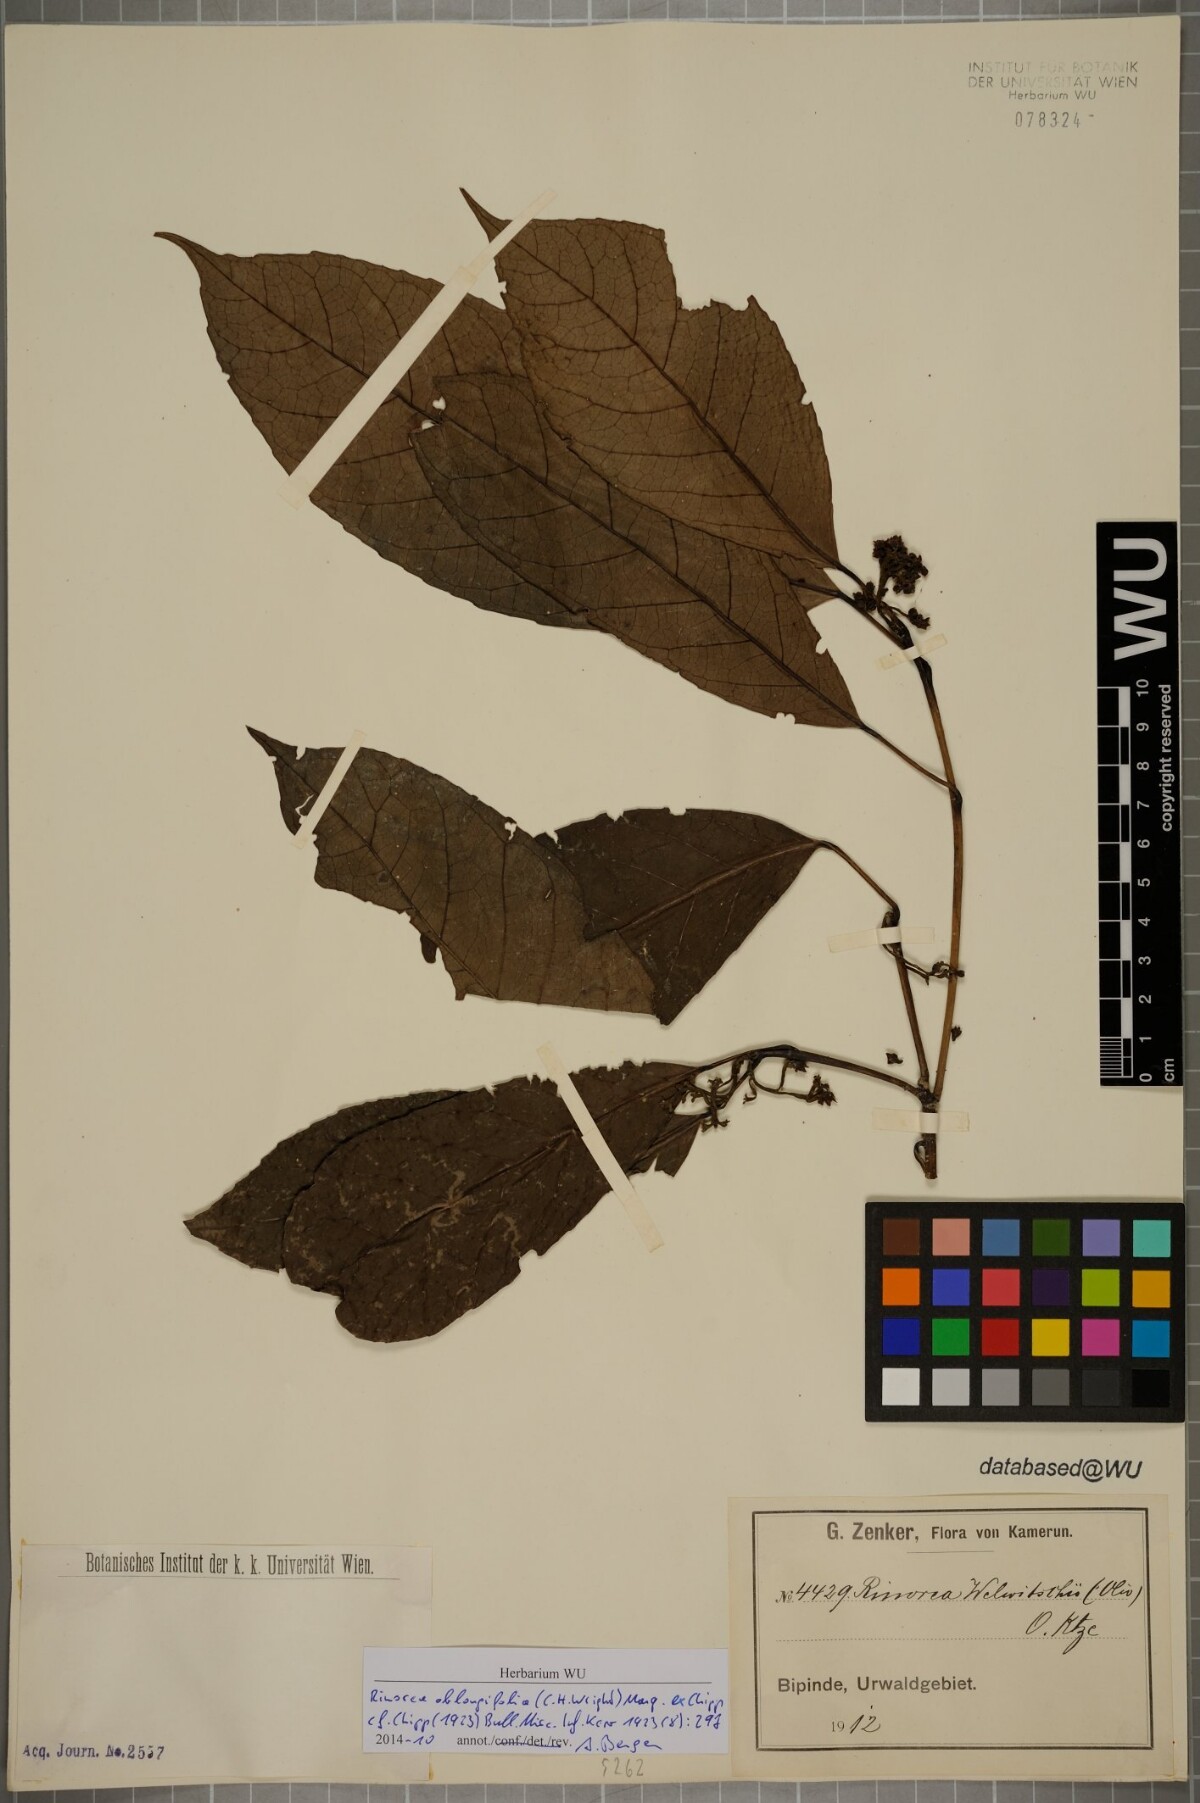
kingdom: Plantae
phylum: Tracheophyta
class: Magnoliopsida
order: Apiales
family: Pittosporaceae
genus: Marianthus
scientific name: Marianthus coeruleopunctatus
